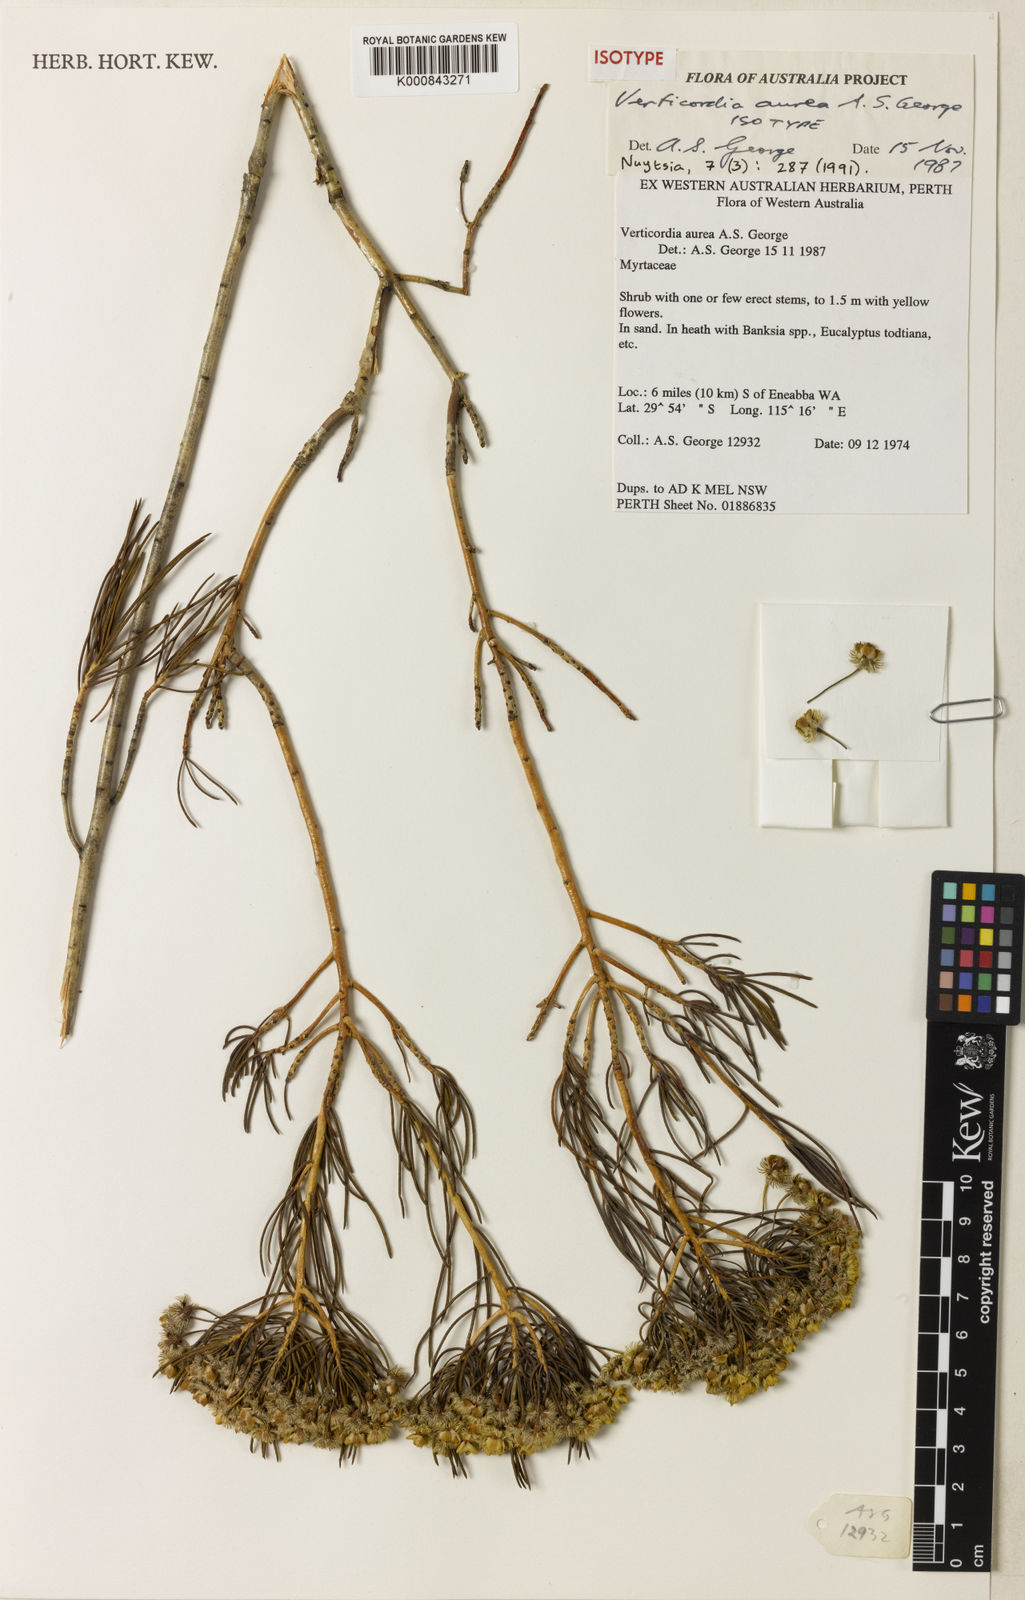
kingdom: Plantae
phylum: Tracheophyta
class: Magnoliopsida
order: Myrtales
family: Myrtaceae
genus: Verticordia
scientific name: Verticordia aurea
